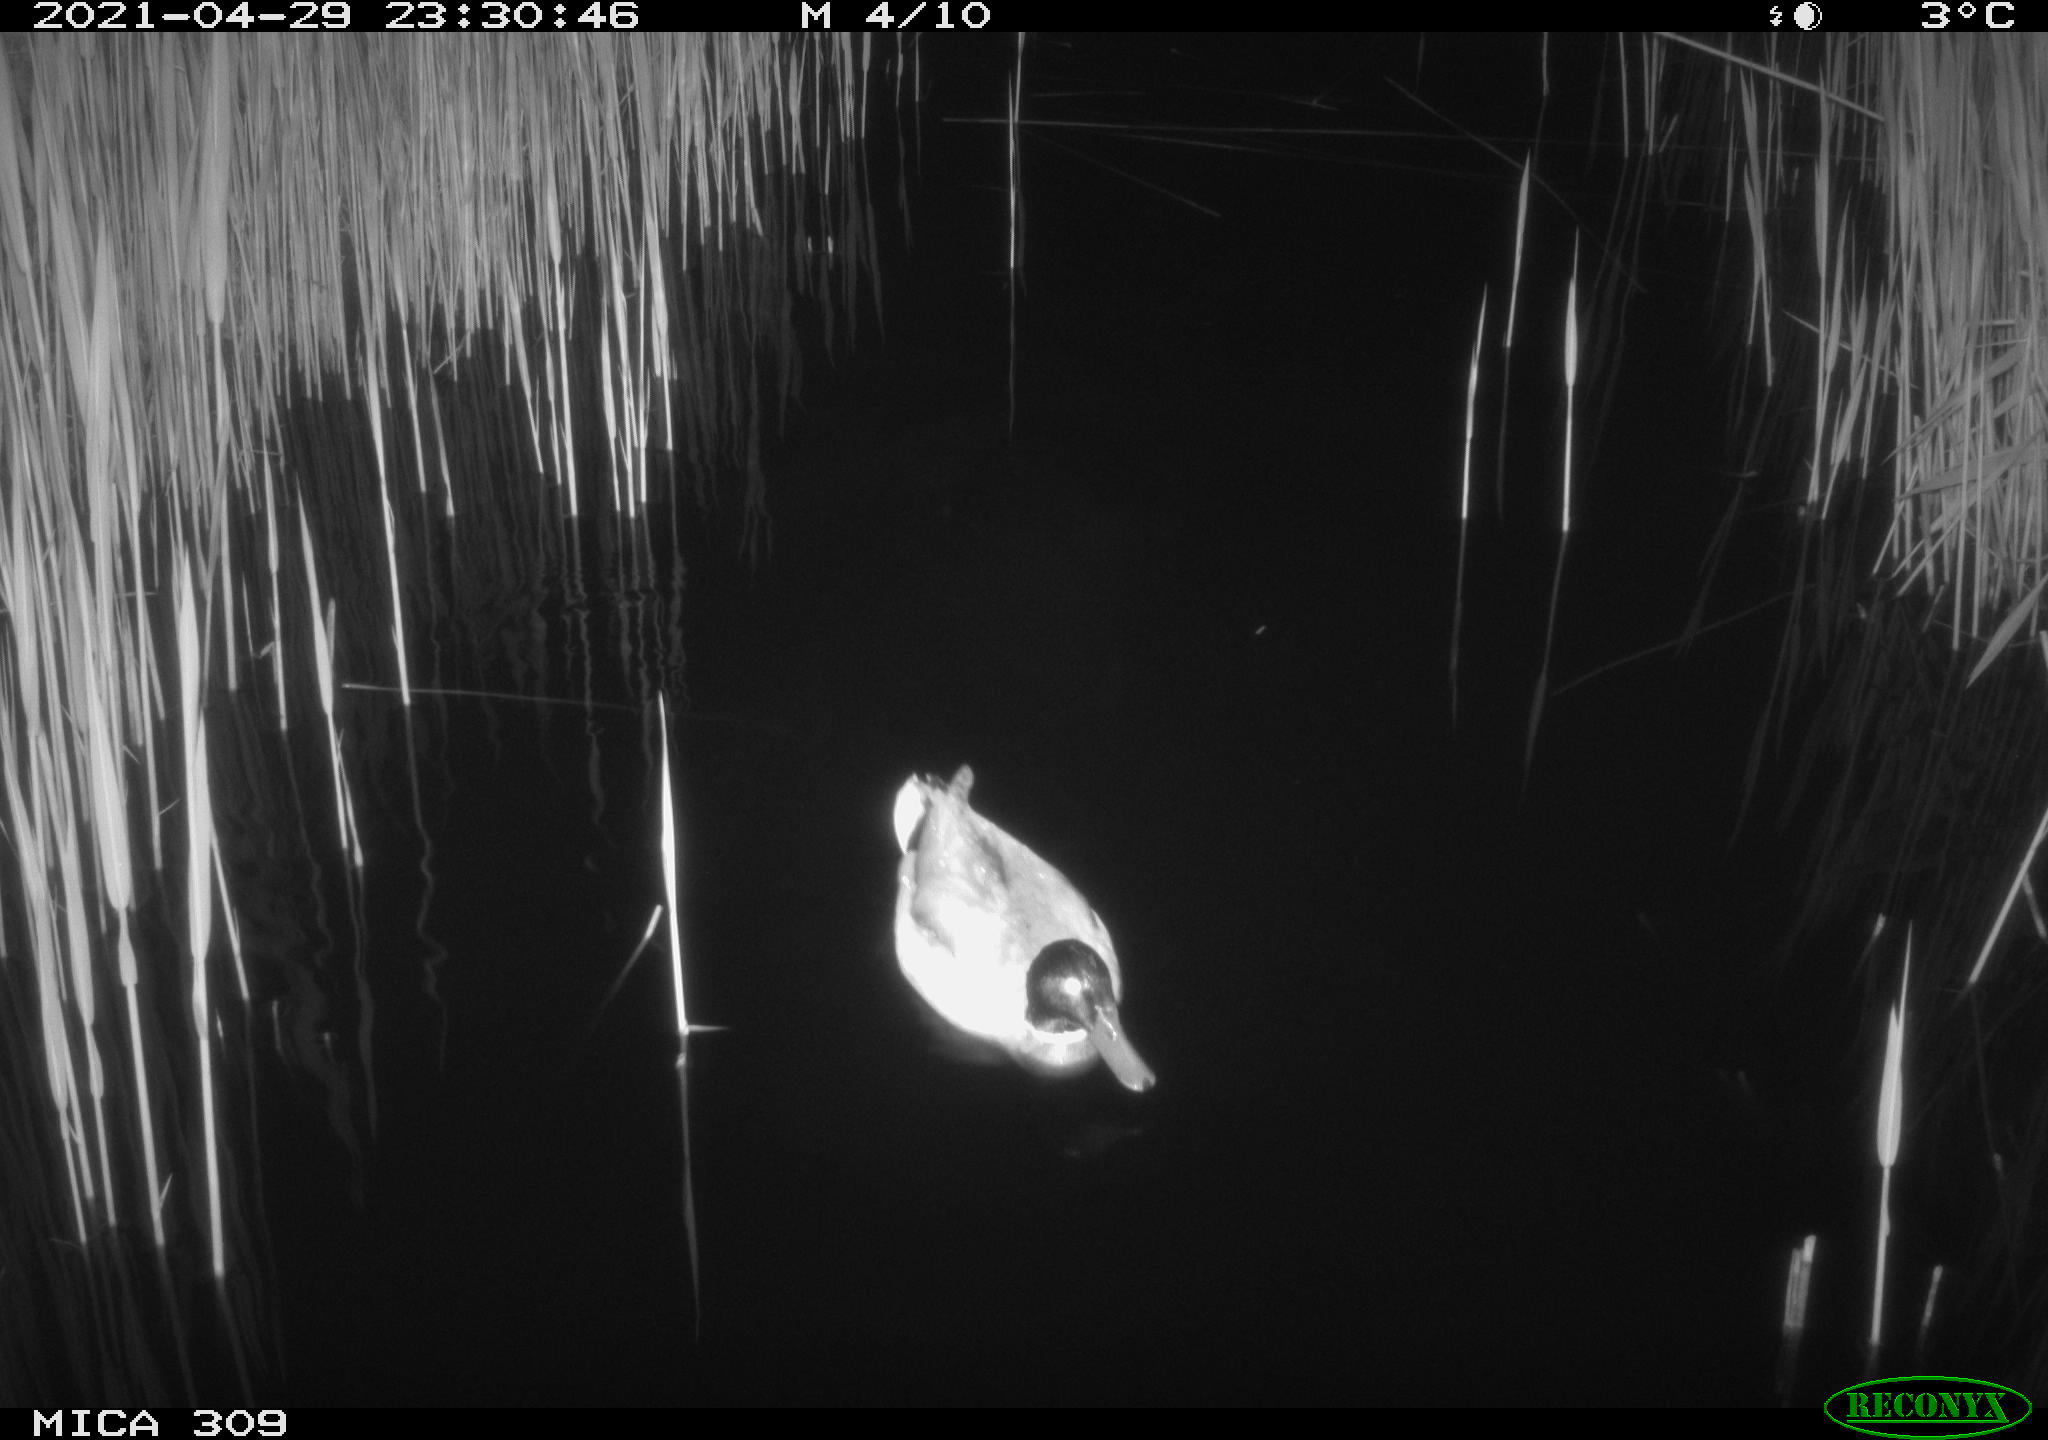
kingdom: Animalia
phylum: Chordata
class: Aves
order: Gruiformes
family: Rallidae
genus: Gallinula
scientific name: Gallinula chloropus
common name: Common moorhen
